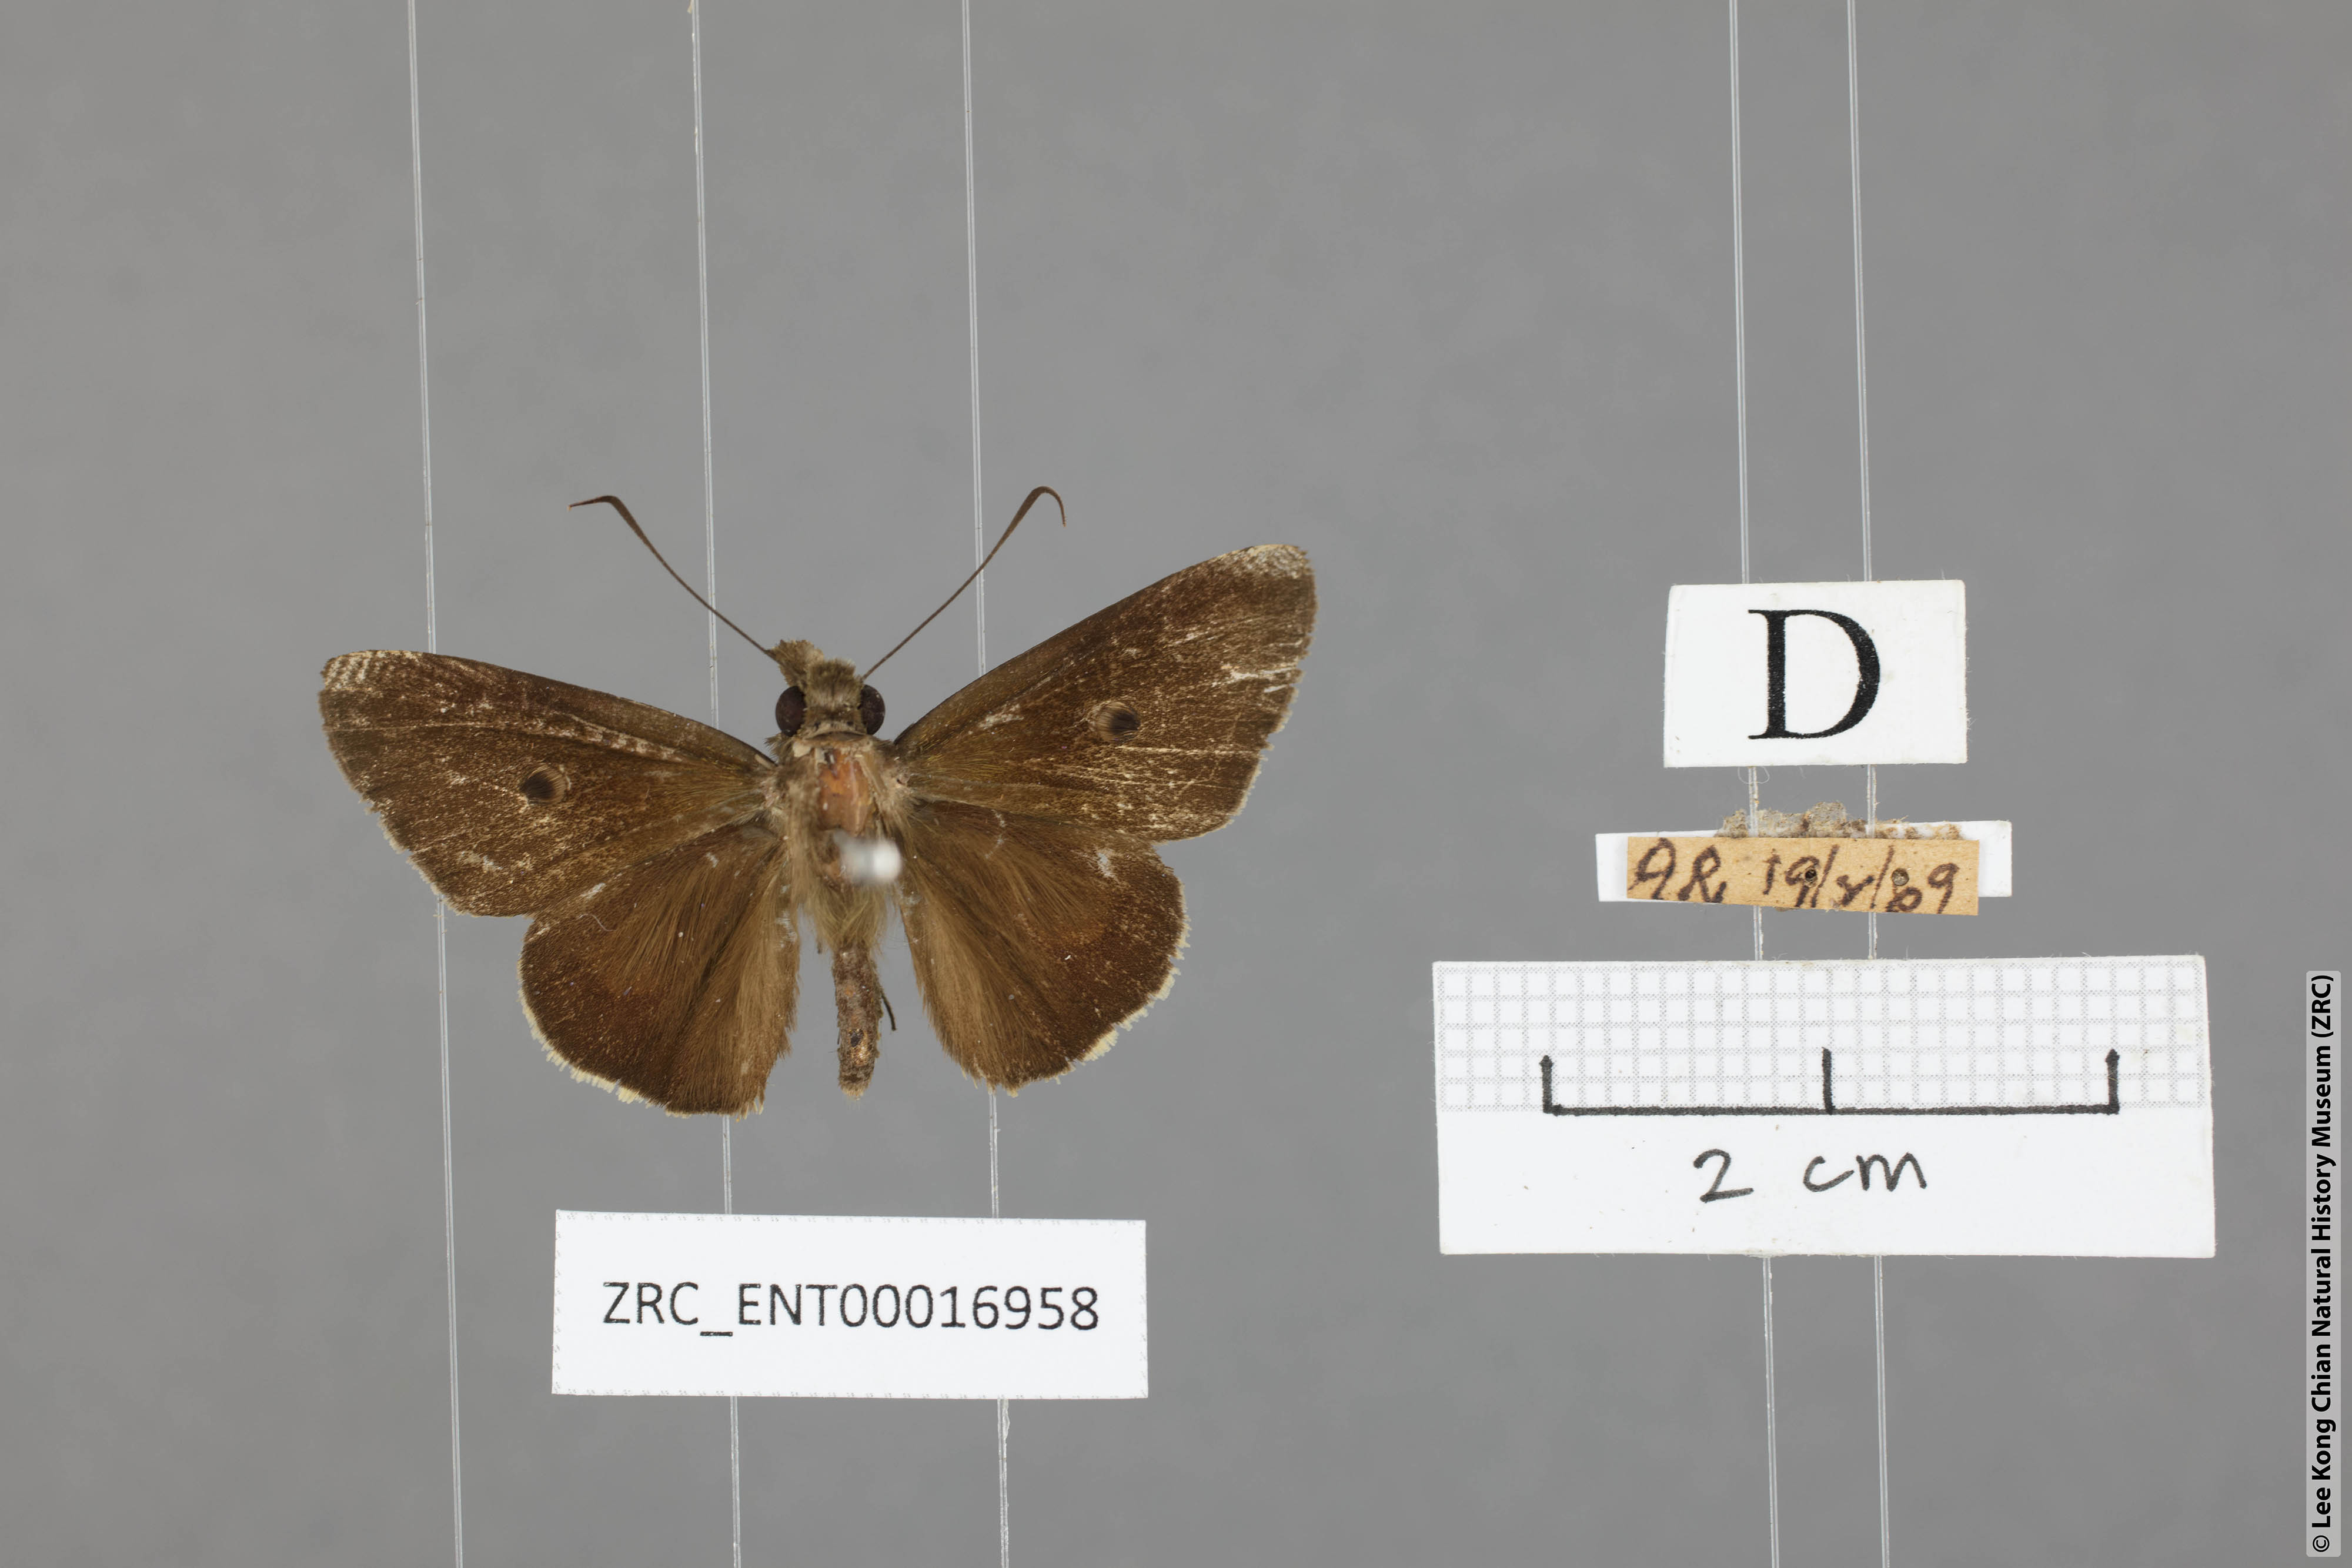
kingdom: Animalia
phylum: Arthropoda
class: Insecta
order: Lepidoptera
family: Hesperiidae
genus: Ge
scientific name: Ge
